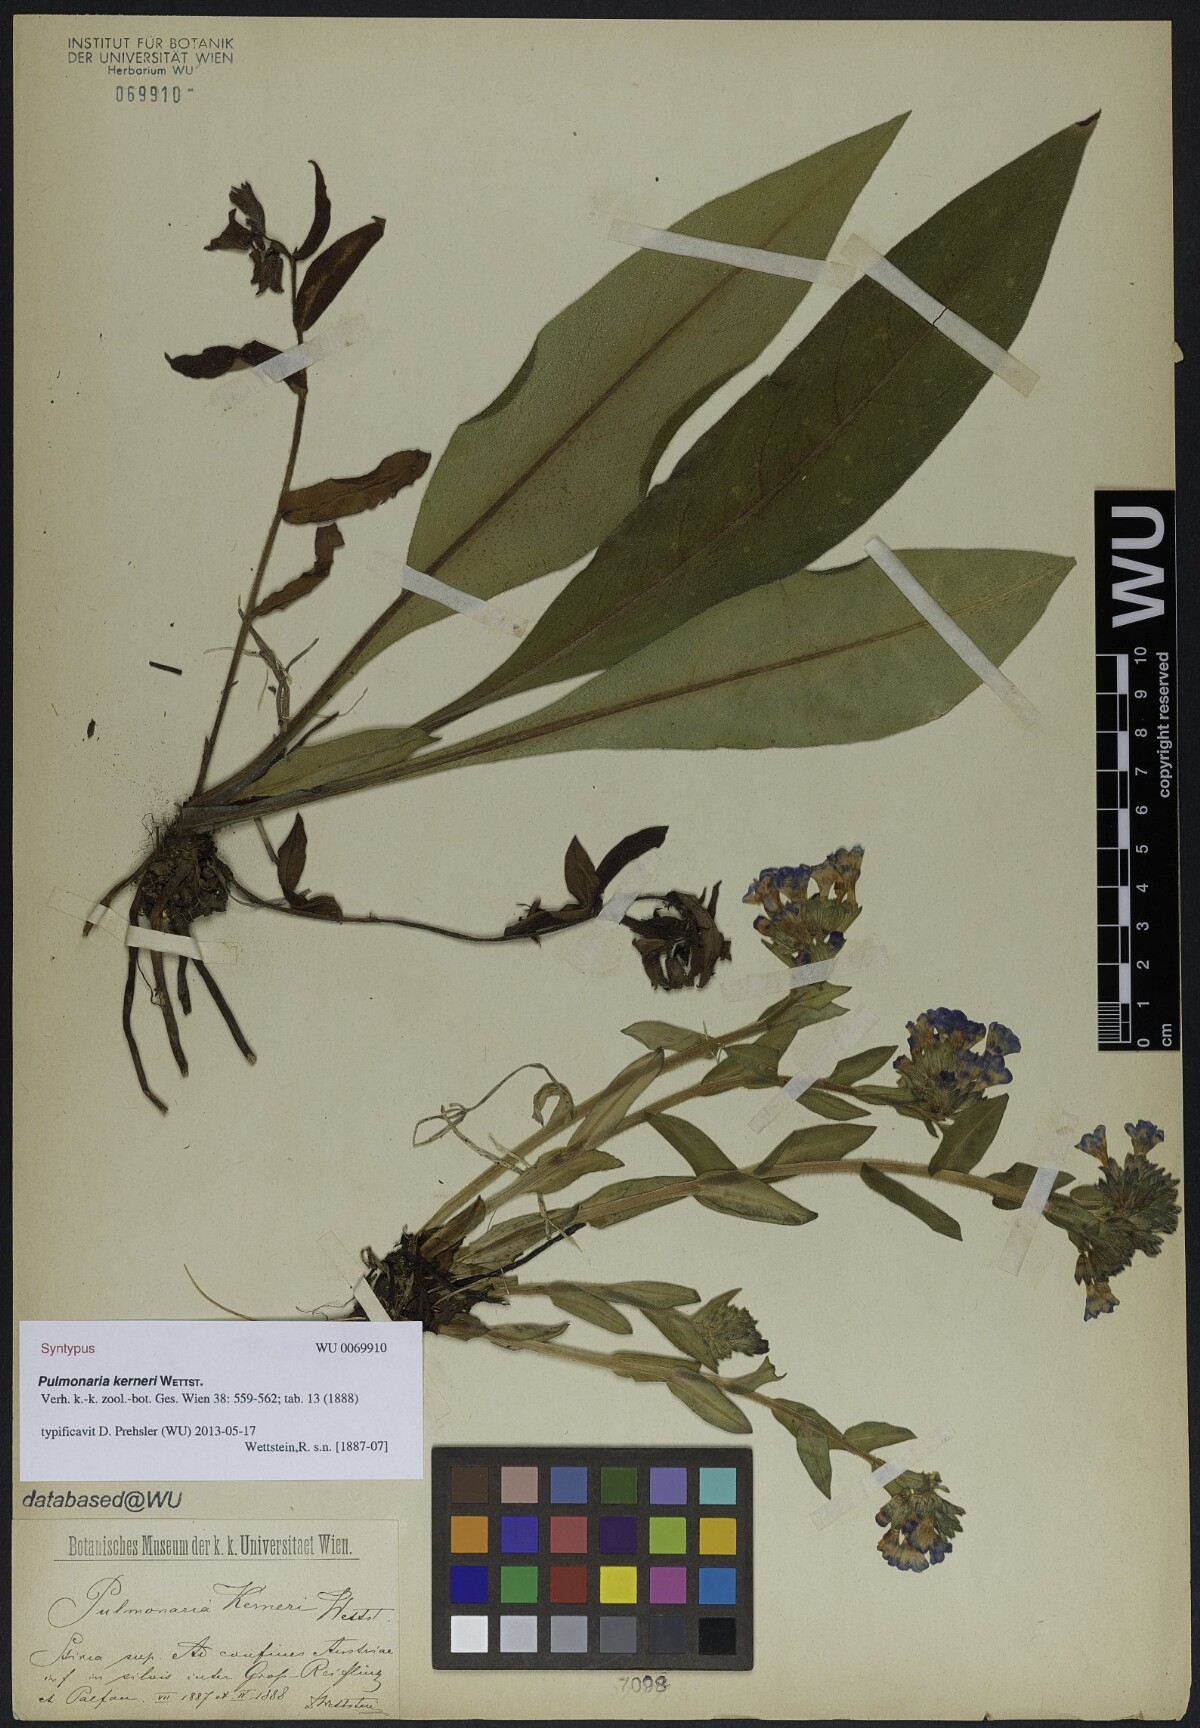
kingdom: Plantae
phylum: Tracheophyta
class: Magnoliopsida
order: Boraginales
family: Boraginaceae
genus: Pulmonaria
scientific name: Pulmonaria kerneri
